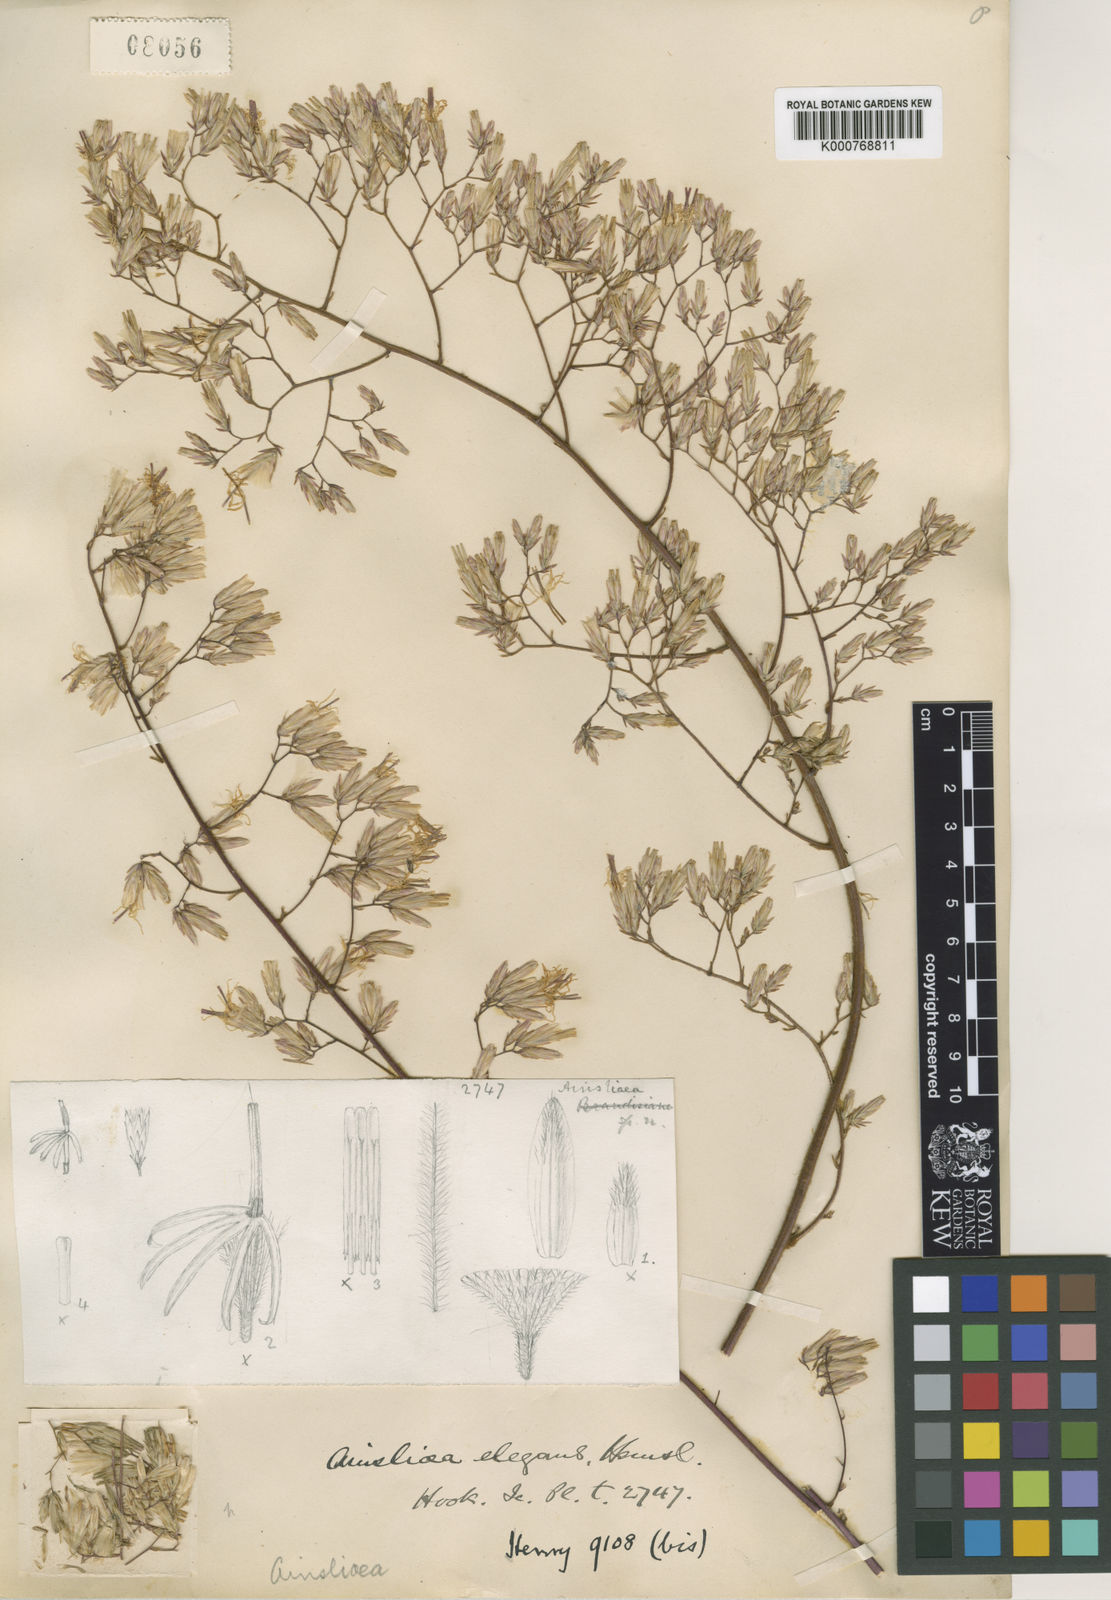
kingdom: Plantae
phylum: Tracheophyta
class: Magnoliopsida
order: Asterales
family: Asteraceae
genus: Ainsliaea
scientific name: Ainsliaea
